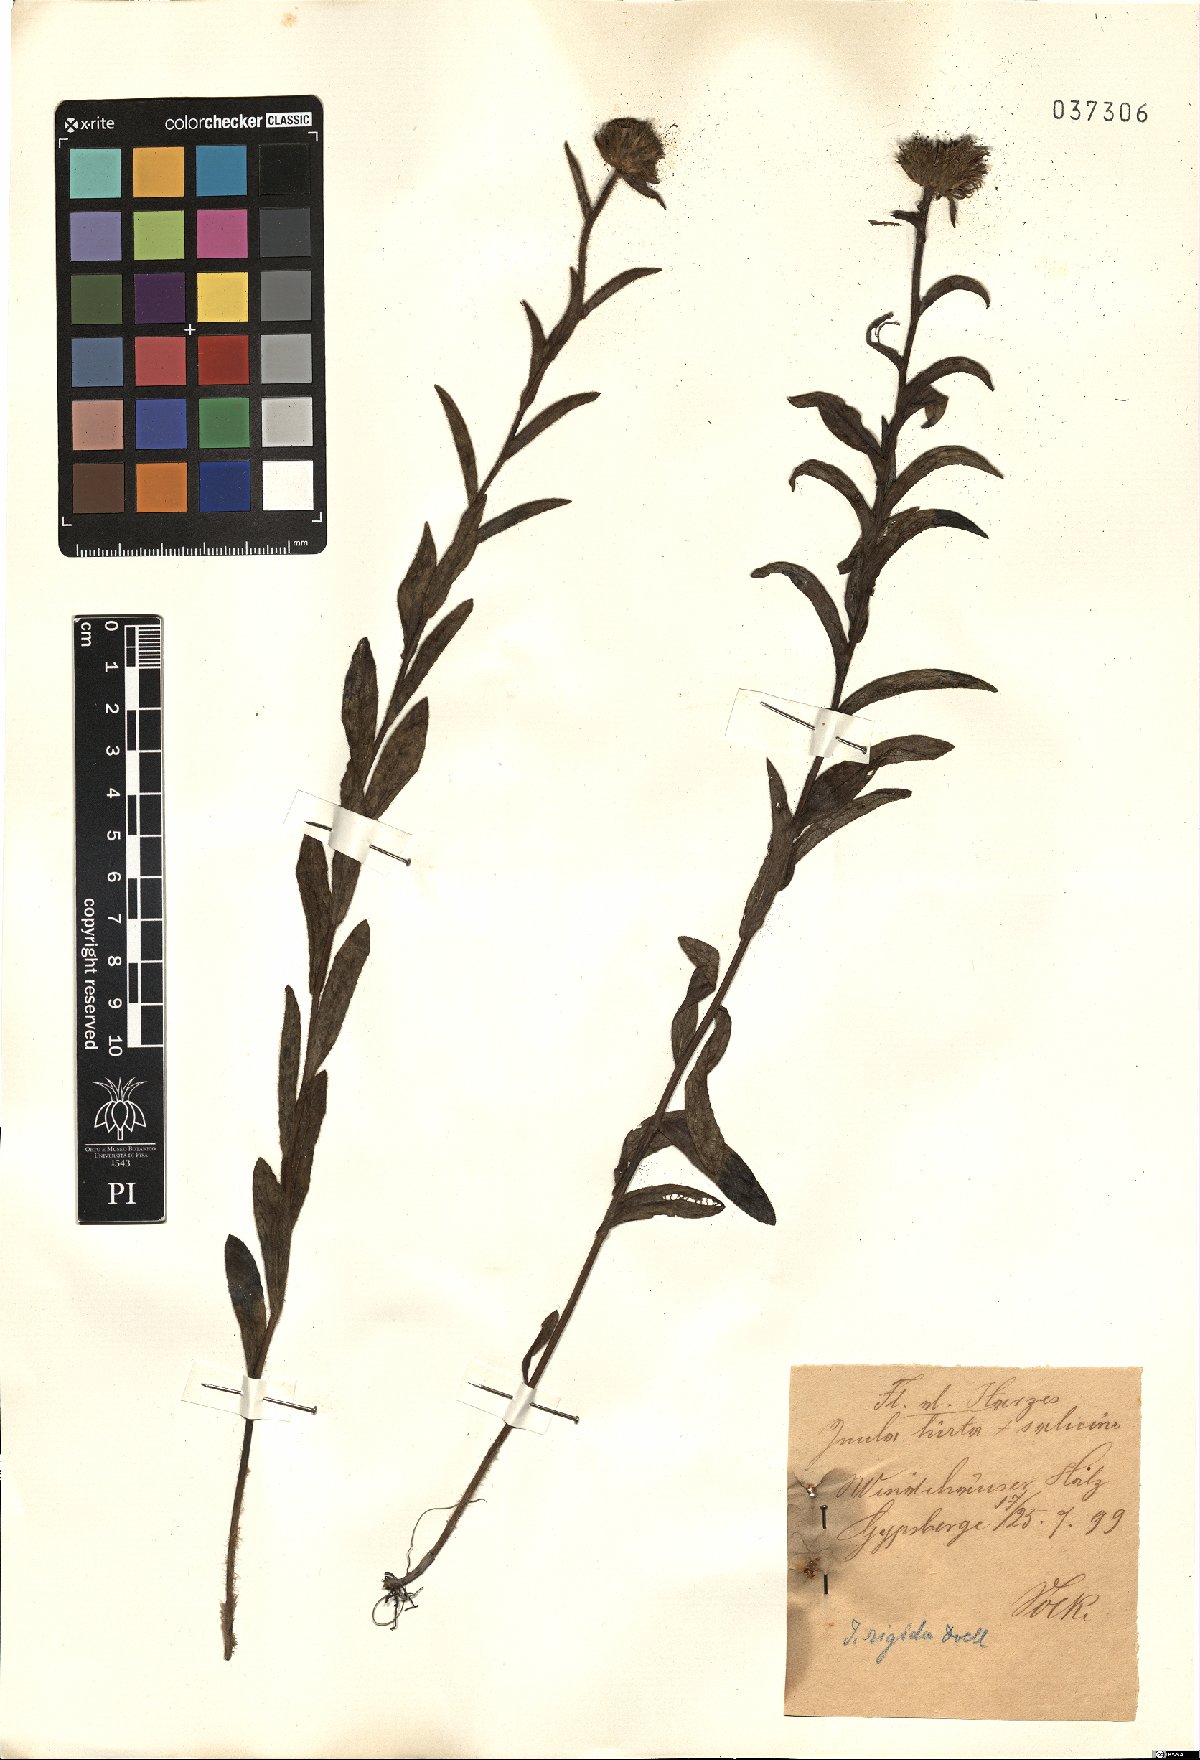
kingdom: Plantae
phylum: Tracheophyta
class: Magnoliopsida
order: Asterales
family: Asteraceae
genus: Pentanema
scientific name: Pentanema hirtum
